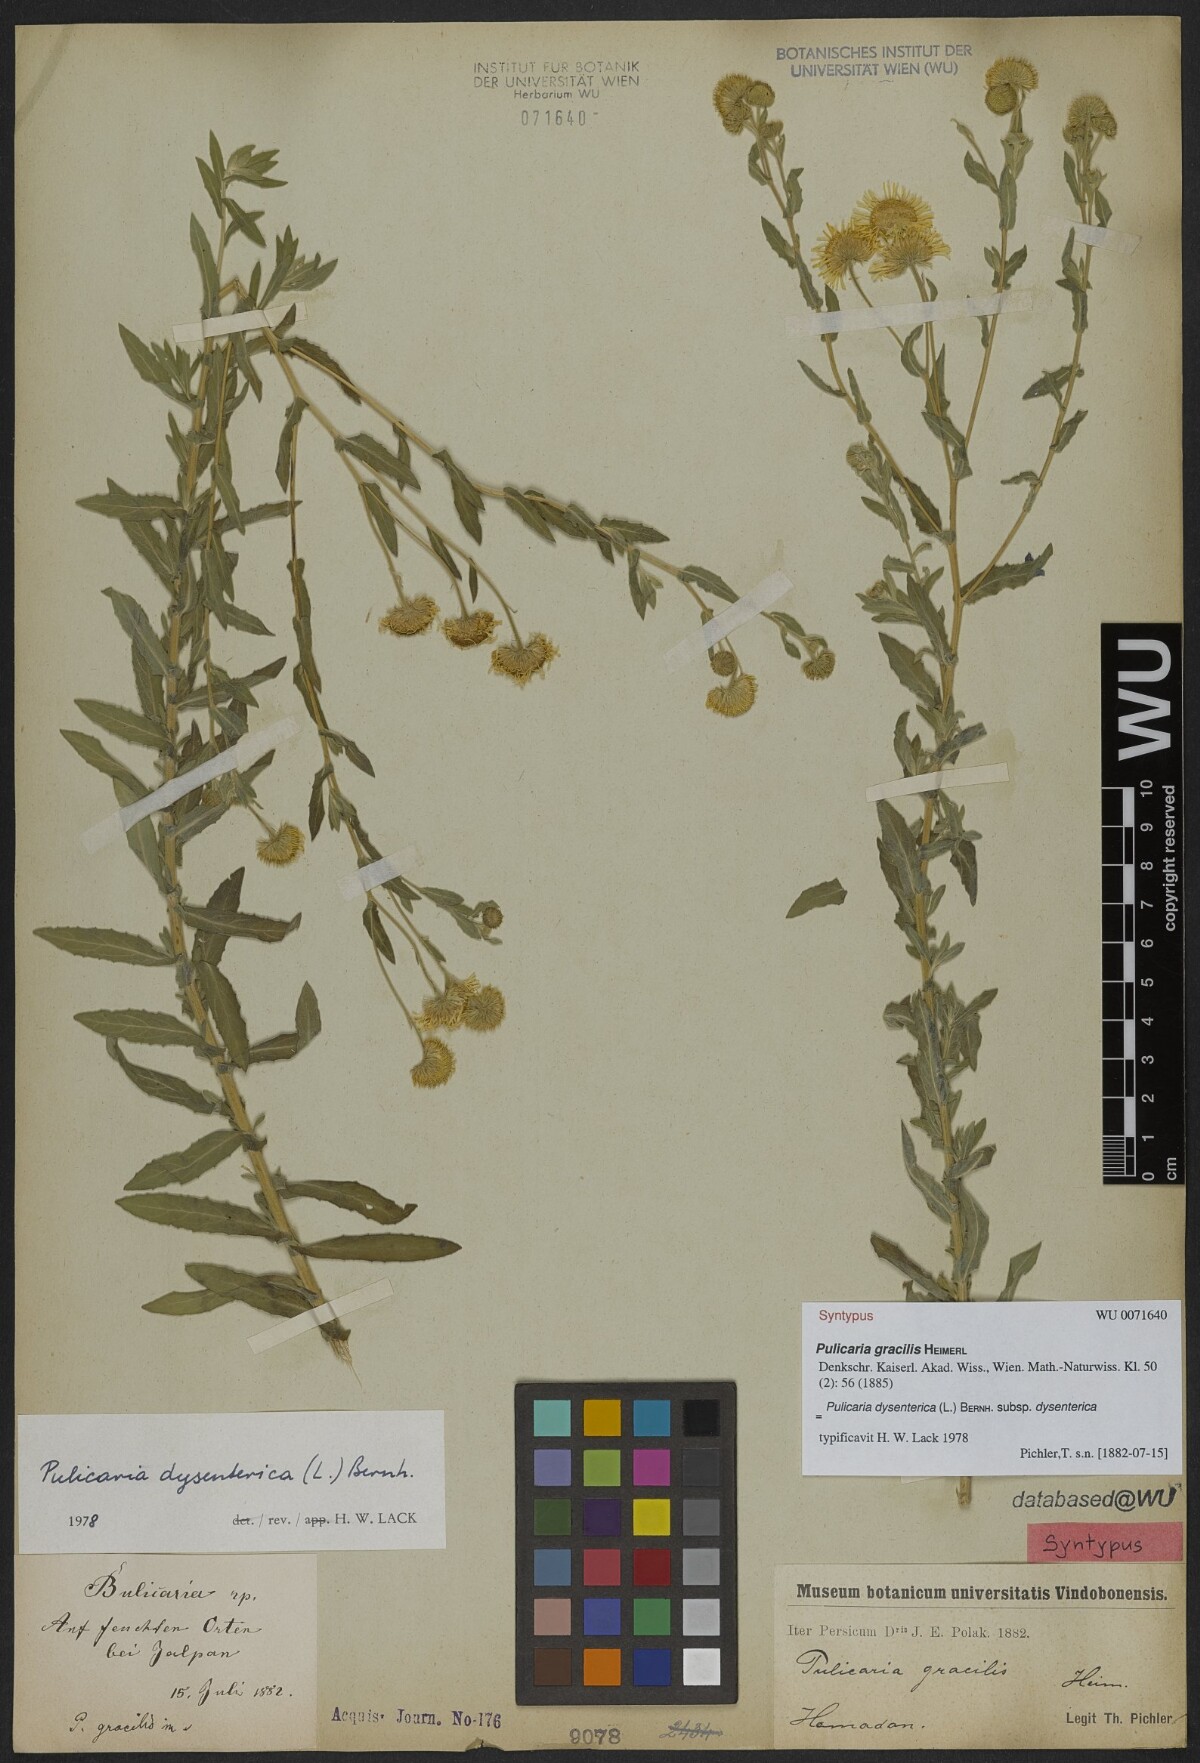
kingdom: Plantae
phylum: Tracheophyta
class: Magnoliopsida
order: Asterales
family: Asteraceae
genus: Pulicaria
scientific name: Pulicaria dysenterica
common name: Common fleabane
